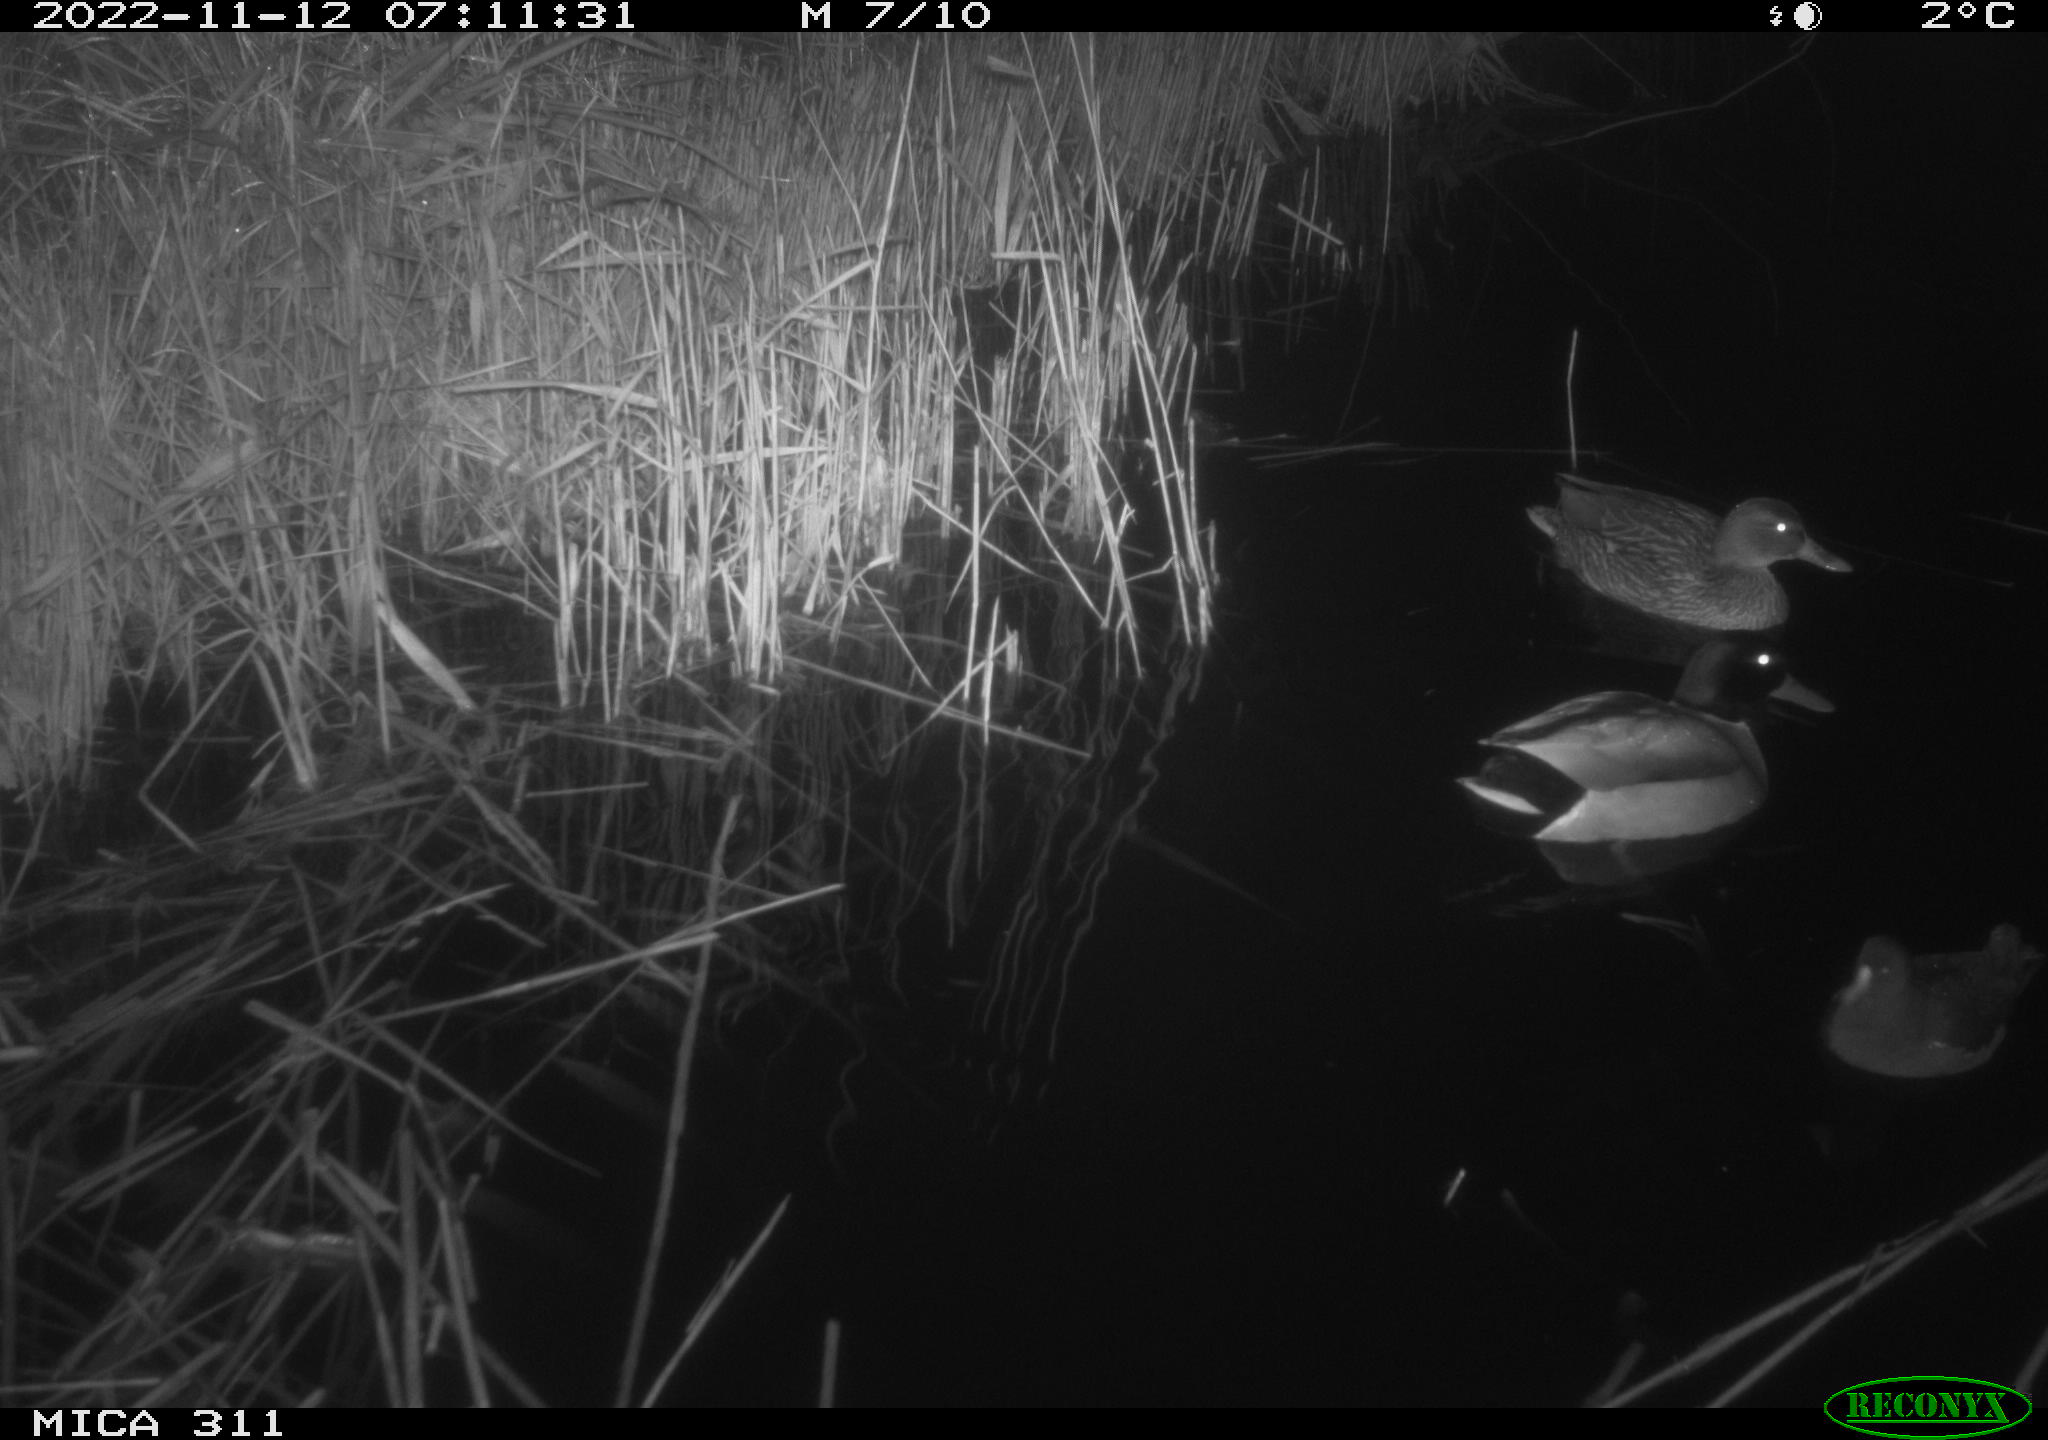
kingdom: Animalia
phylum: Chordata
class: Aves
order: Anseriformes
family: Anatidae
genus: Anas
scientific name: Anas
